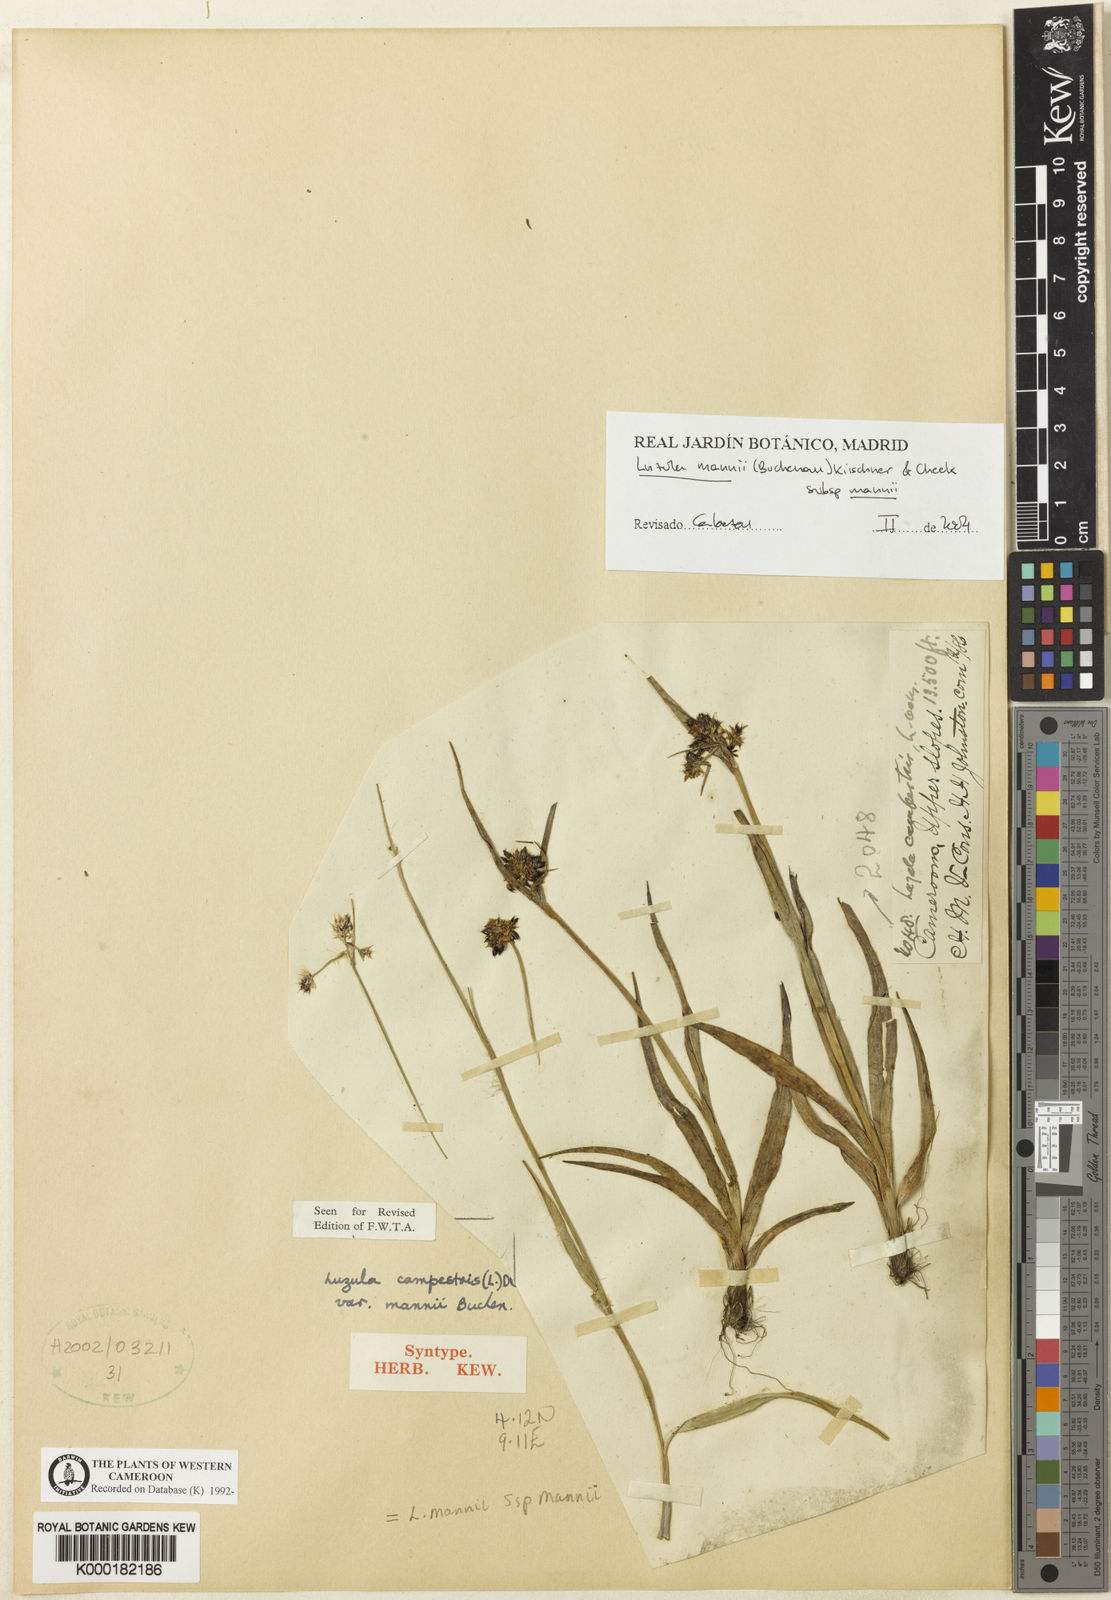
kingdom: Plantae
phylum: Tracheophyta
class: Liliopsida
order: Poales
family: Juncaceae
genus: Luzula
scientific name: Luzula campestris
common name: Field wood-rush
